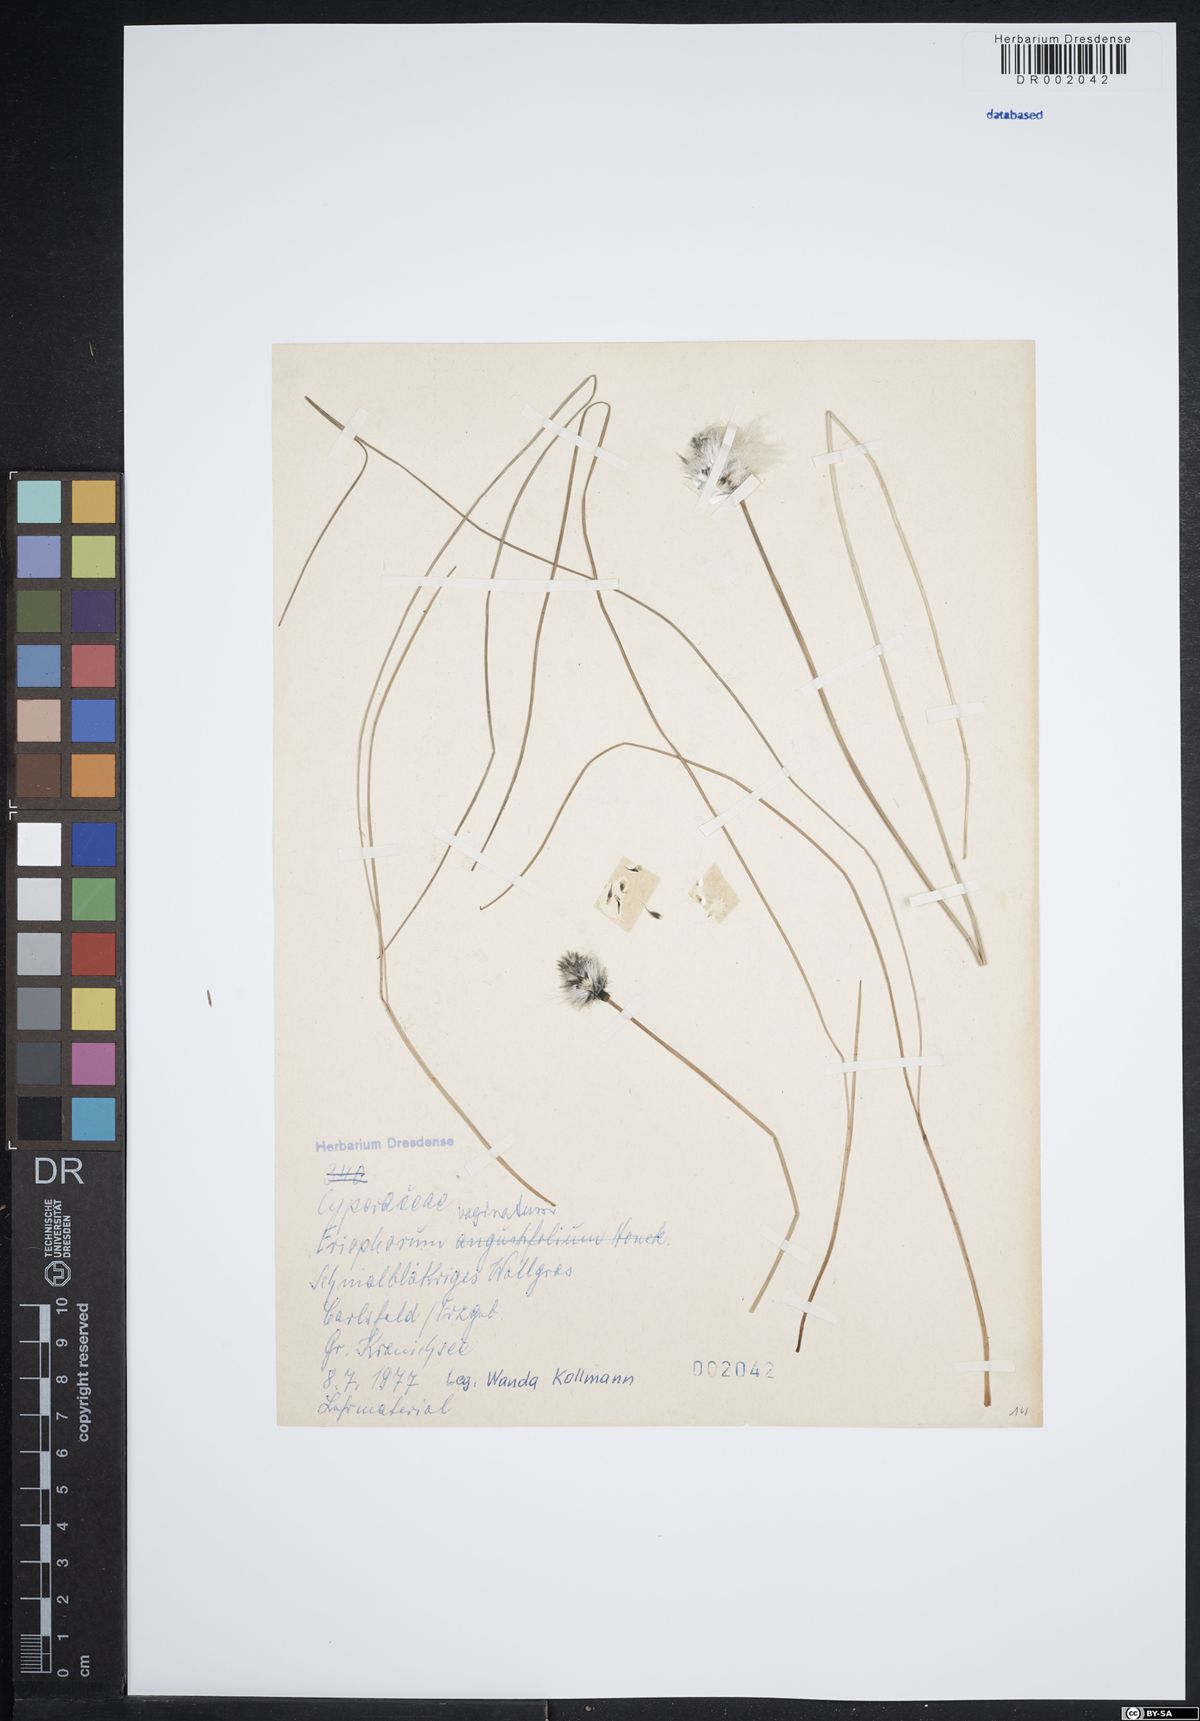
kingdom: Plantae
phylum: Tracheophyta
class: Liliopsida
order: Poales
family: Cyperaceae
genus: Eriophorum
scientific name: Eriophorum vaginatum
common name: Hare's-tail cottongrass
